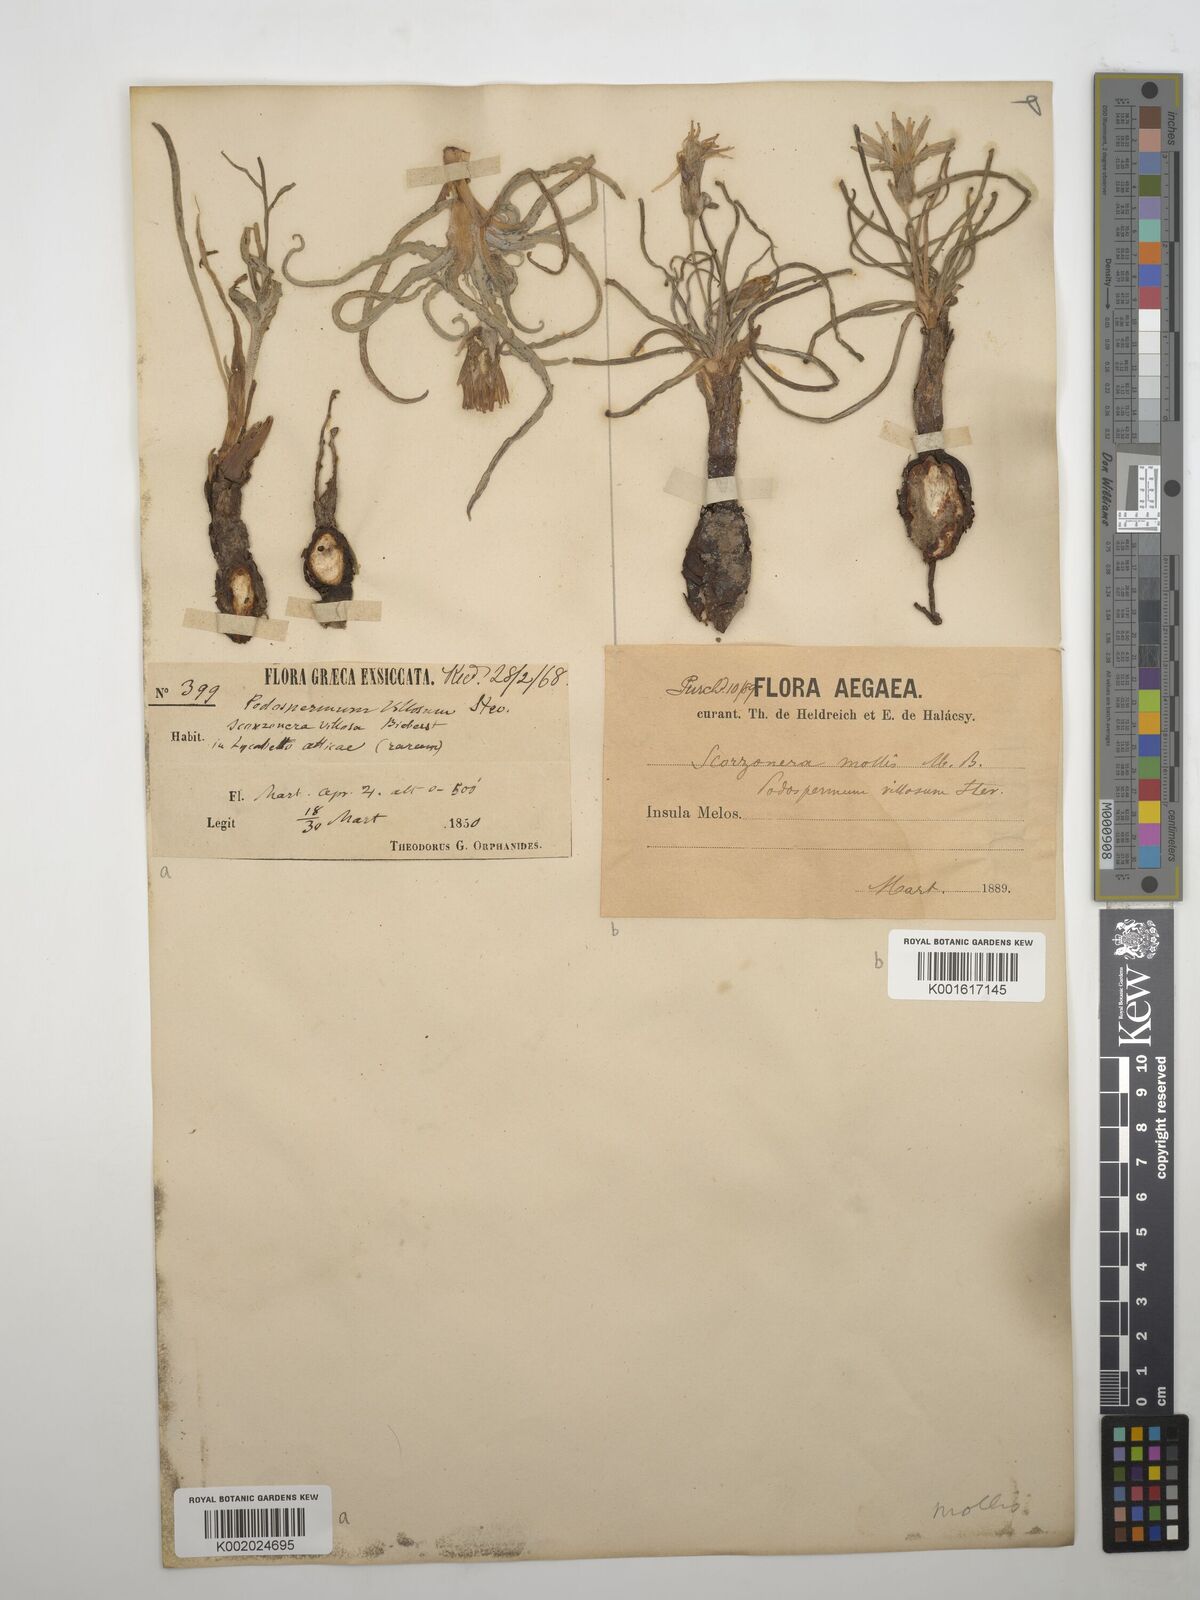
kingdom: Plantae
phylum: Tracheophyta
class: Magnoliopsida
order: Asterales
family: Asteraceae
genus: Candollea
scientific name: Candollea mollis
